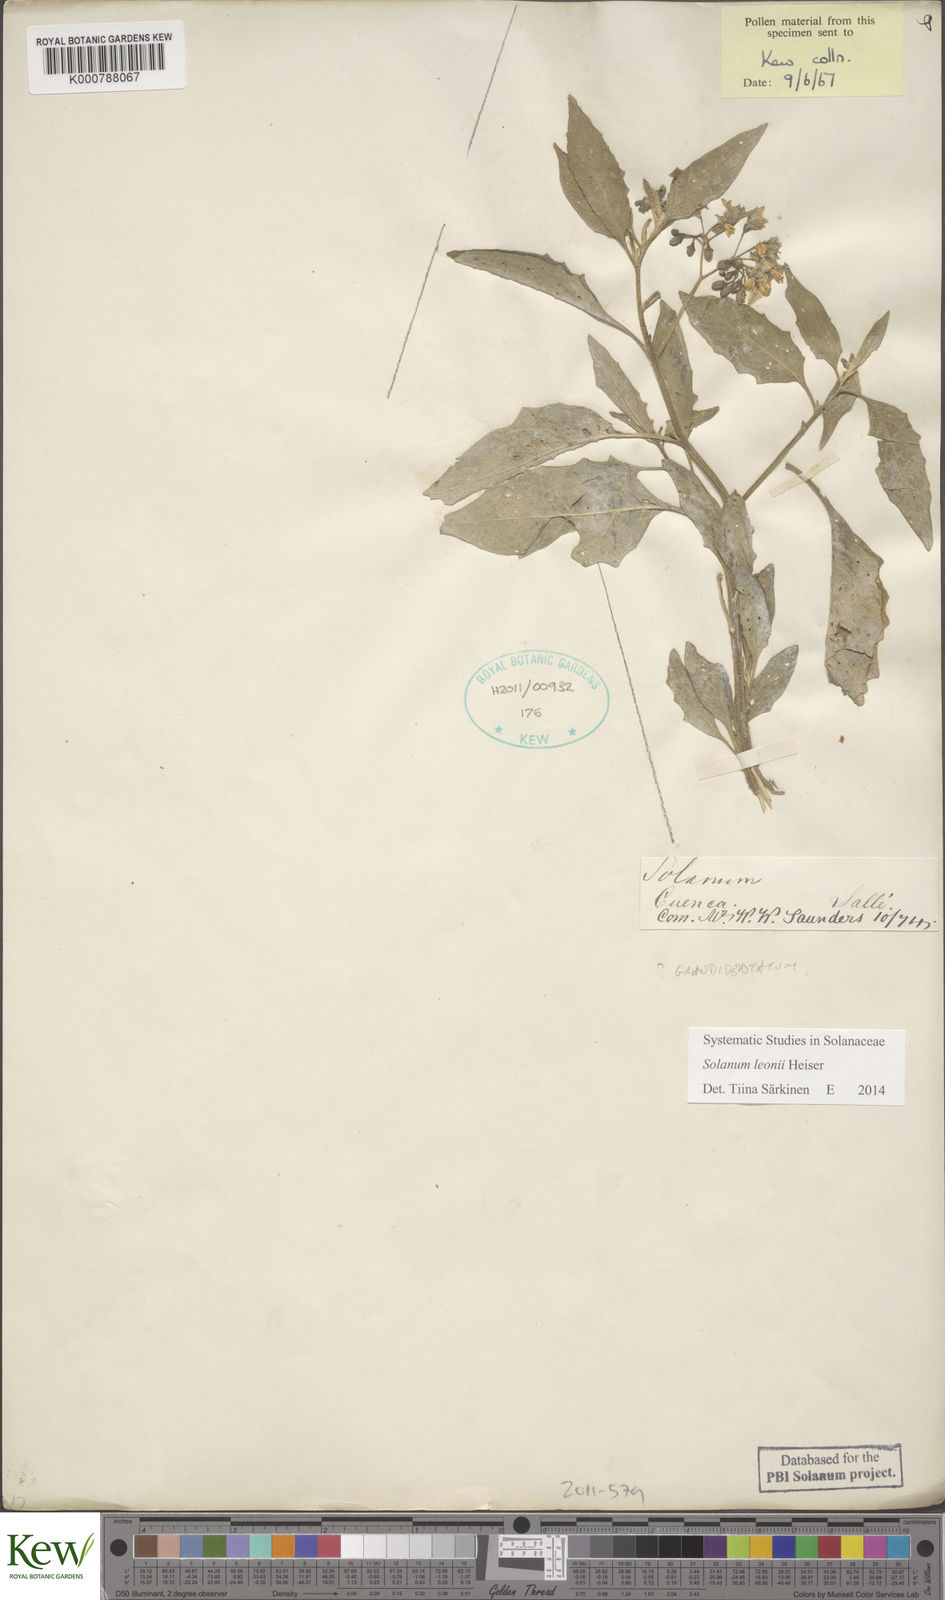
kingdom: Plantae
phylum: Tracheophyta
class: Magnoliopsida
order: Solanales
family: Solanaceae
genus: Solanum
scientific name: Solanum interandinum
